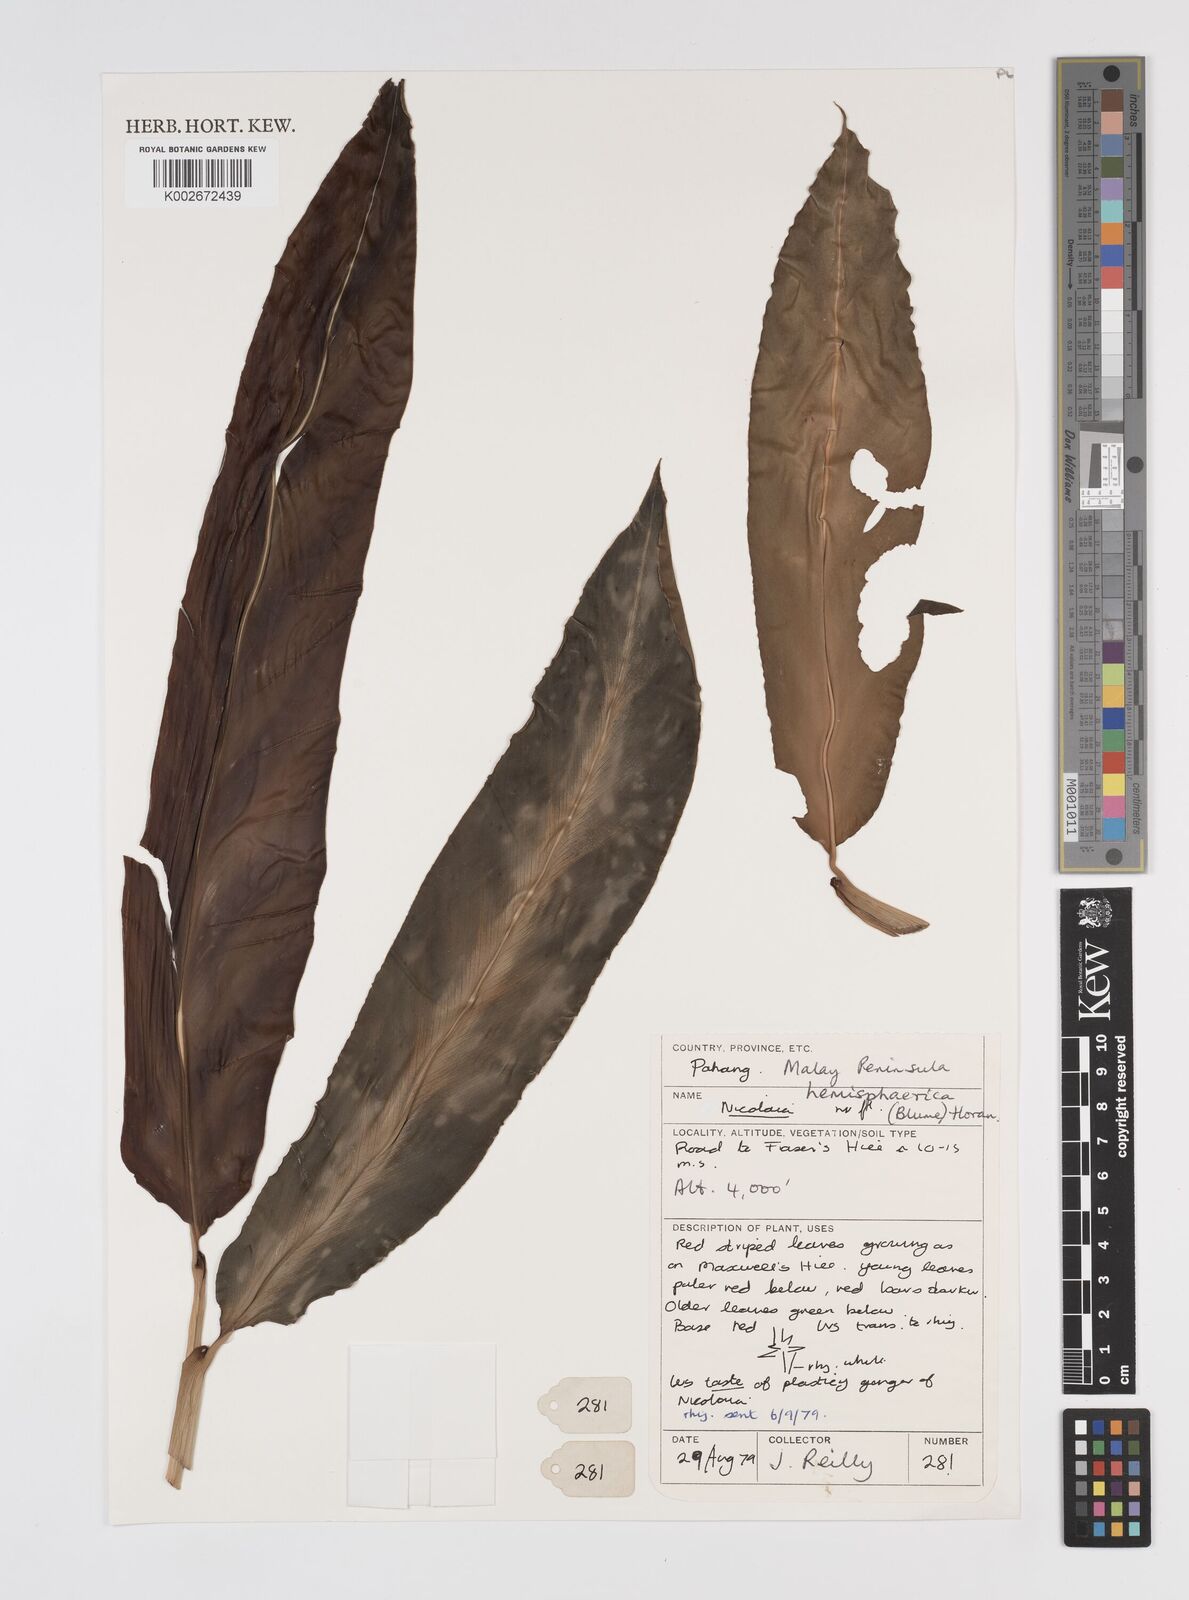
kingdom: Plantae
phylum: Tracheophyta
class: Liliopsida
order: Zingiberales
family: Zingiberaceae
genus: Etlingera
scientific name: Etlingera fulgens
